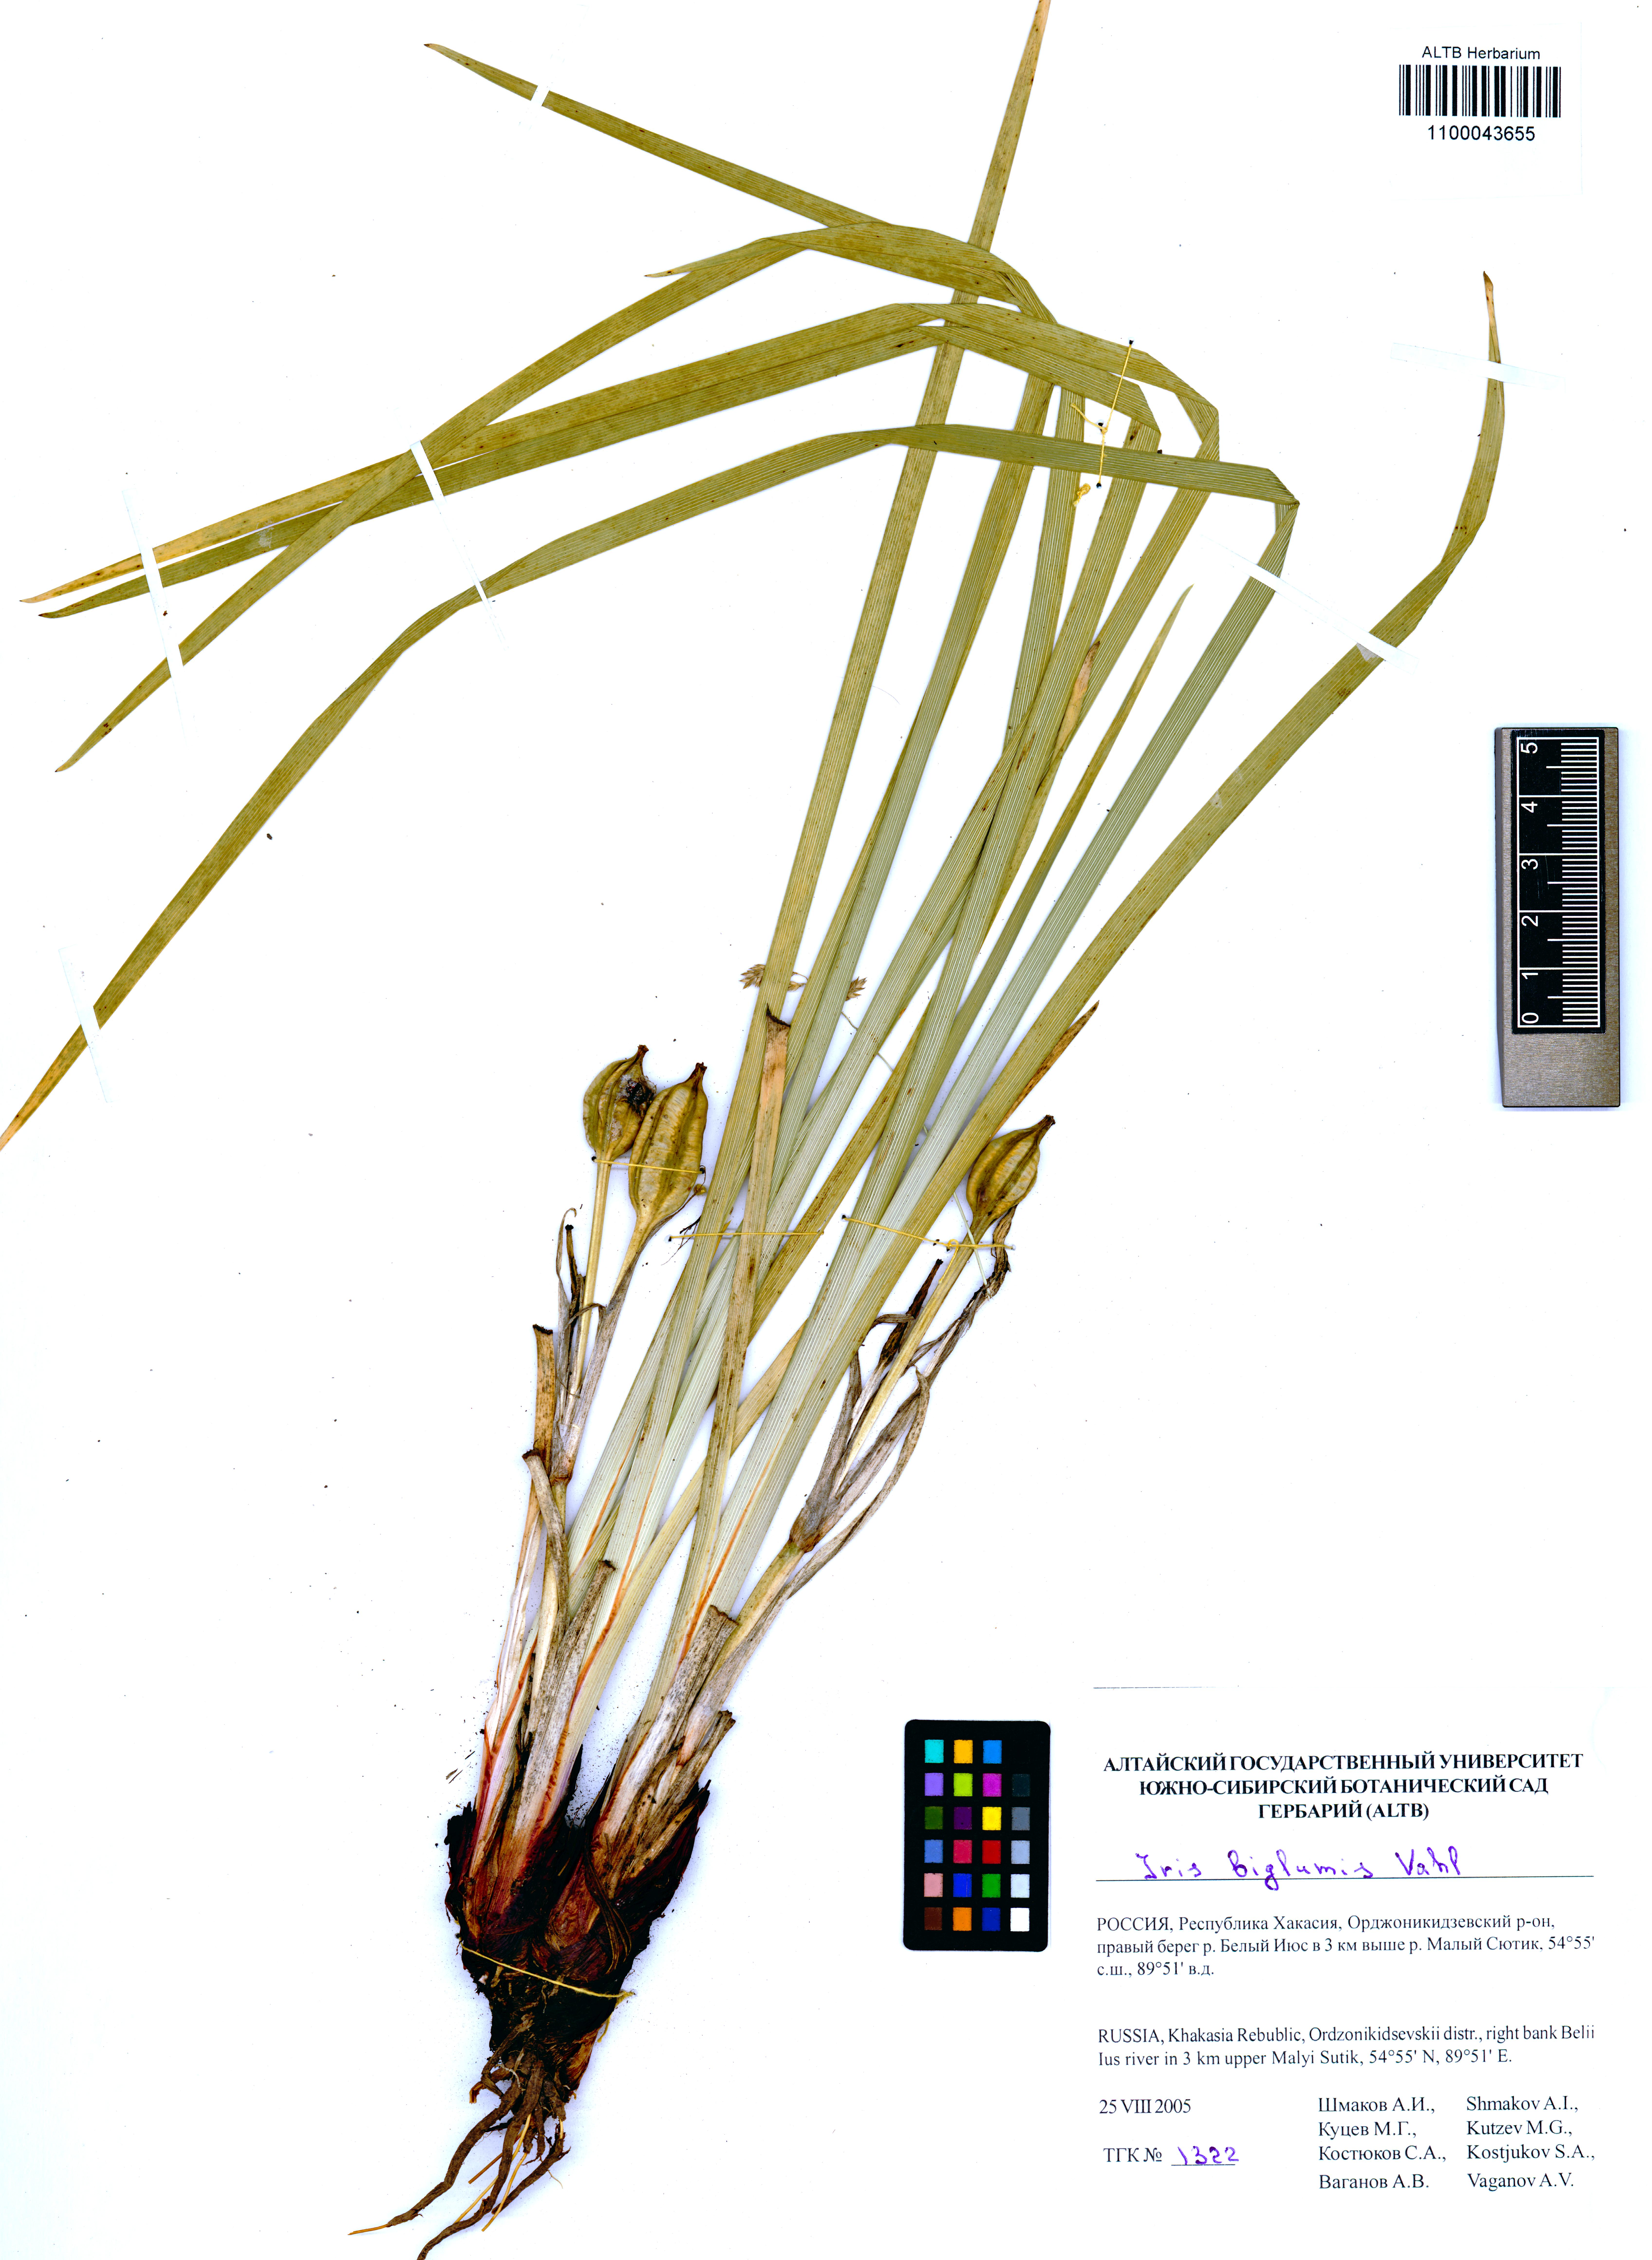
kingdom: Plantae
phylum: Tracheophyta
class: Liliopsida
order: Asparagales
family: Iridaceae
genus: Iris
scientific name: Iris lactea
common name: White-flower chinese iris
